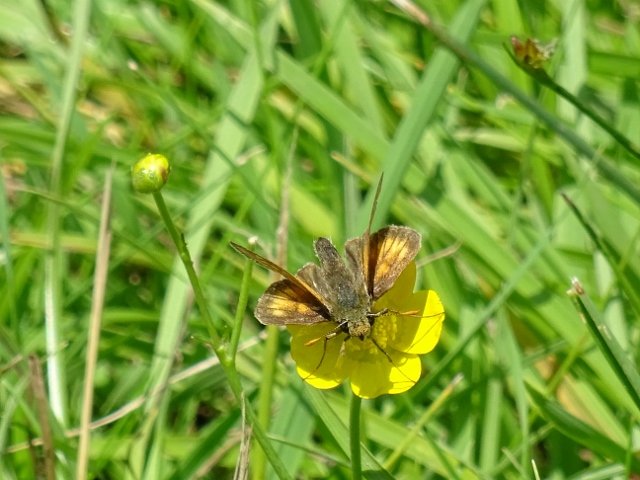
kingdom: Animalia
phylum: Arthropoda
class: Insecta
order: Lepidoptera
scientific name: Lepidoptera
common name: Butterflies
